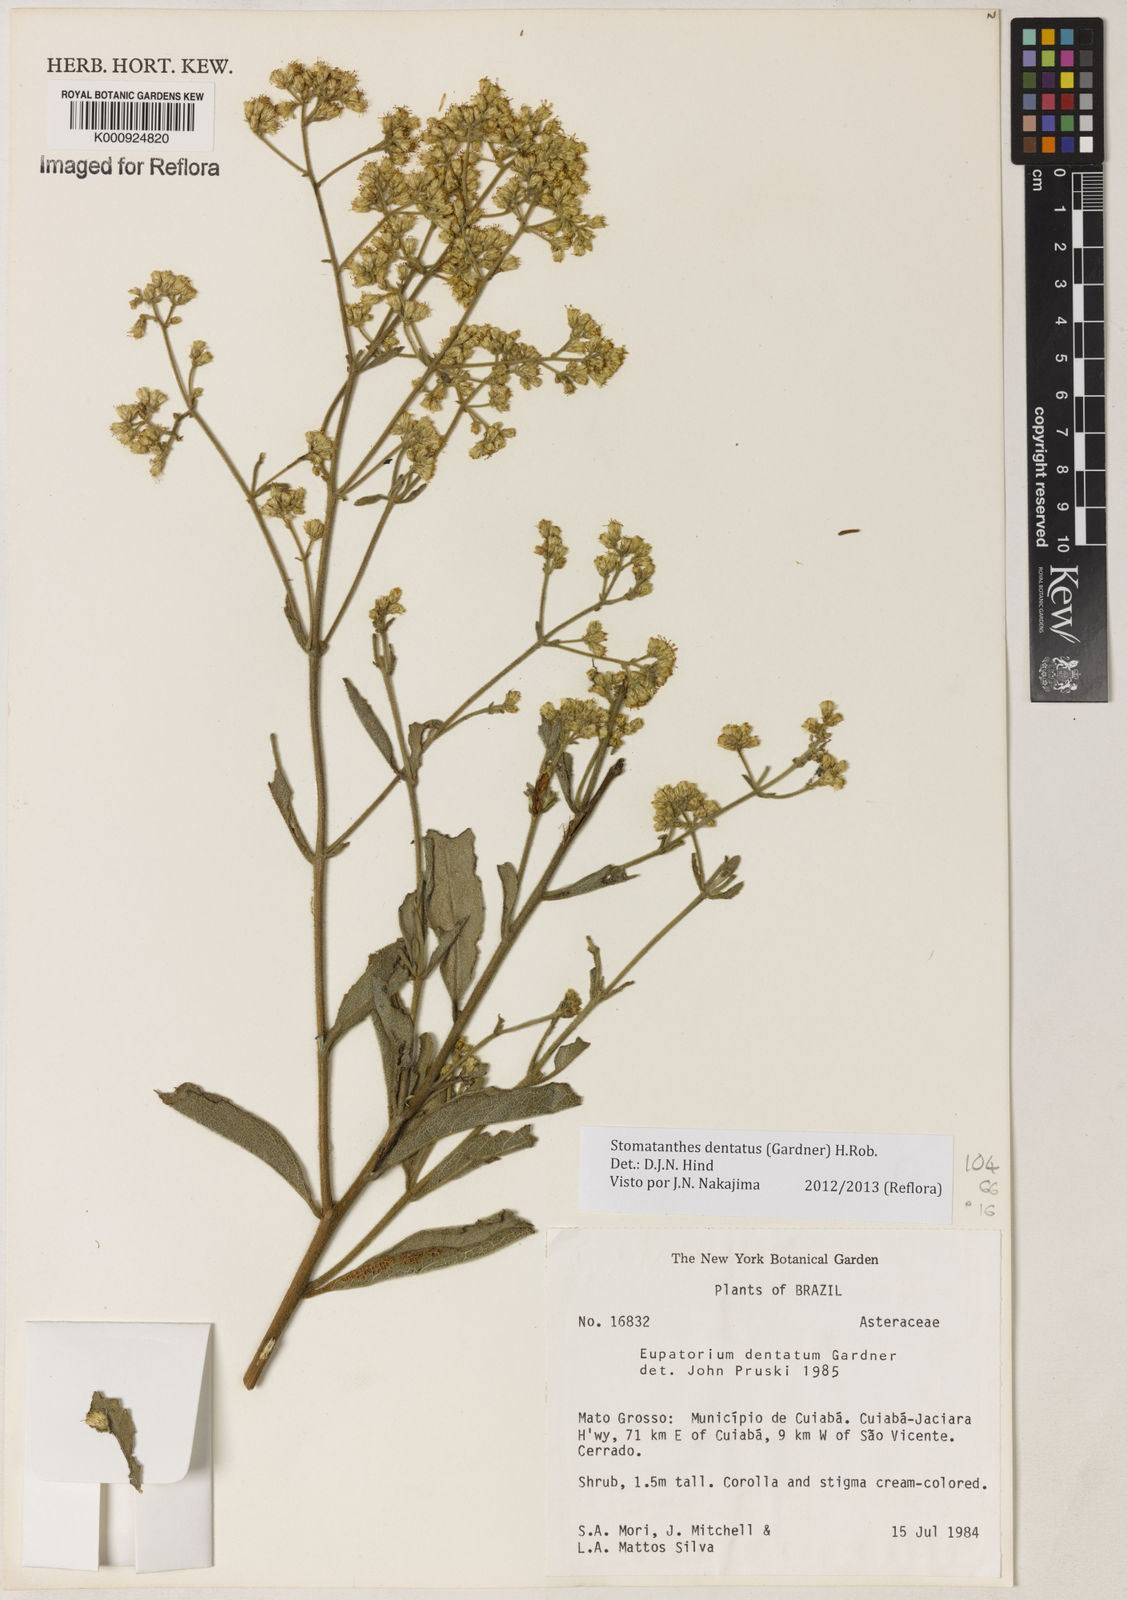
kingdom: Plantae
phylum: Tracheophyta
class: Magnoliopsida
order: Asterales
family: Asteraceae
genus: Stomatanthes
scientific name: Stomatanthes dentatus
